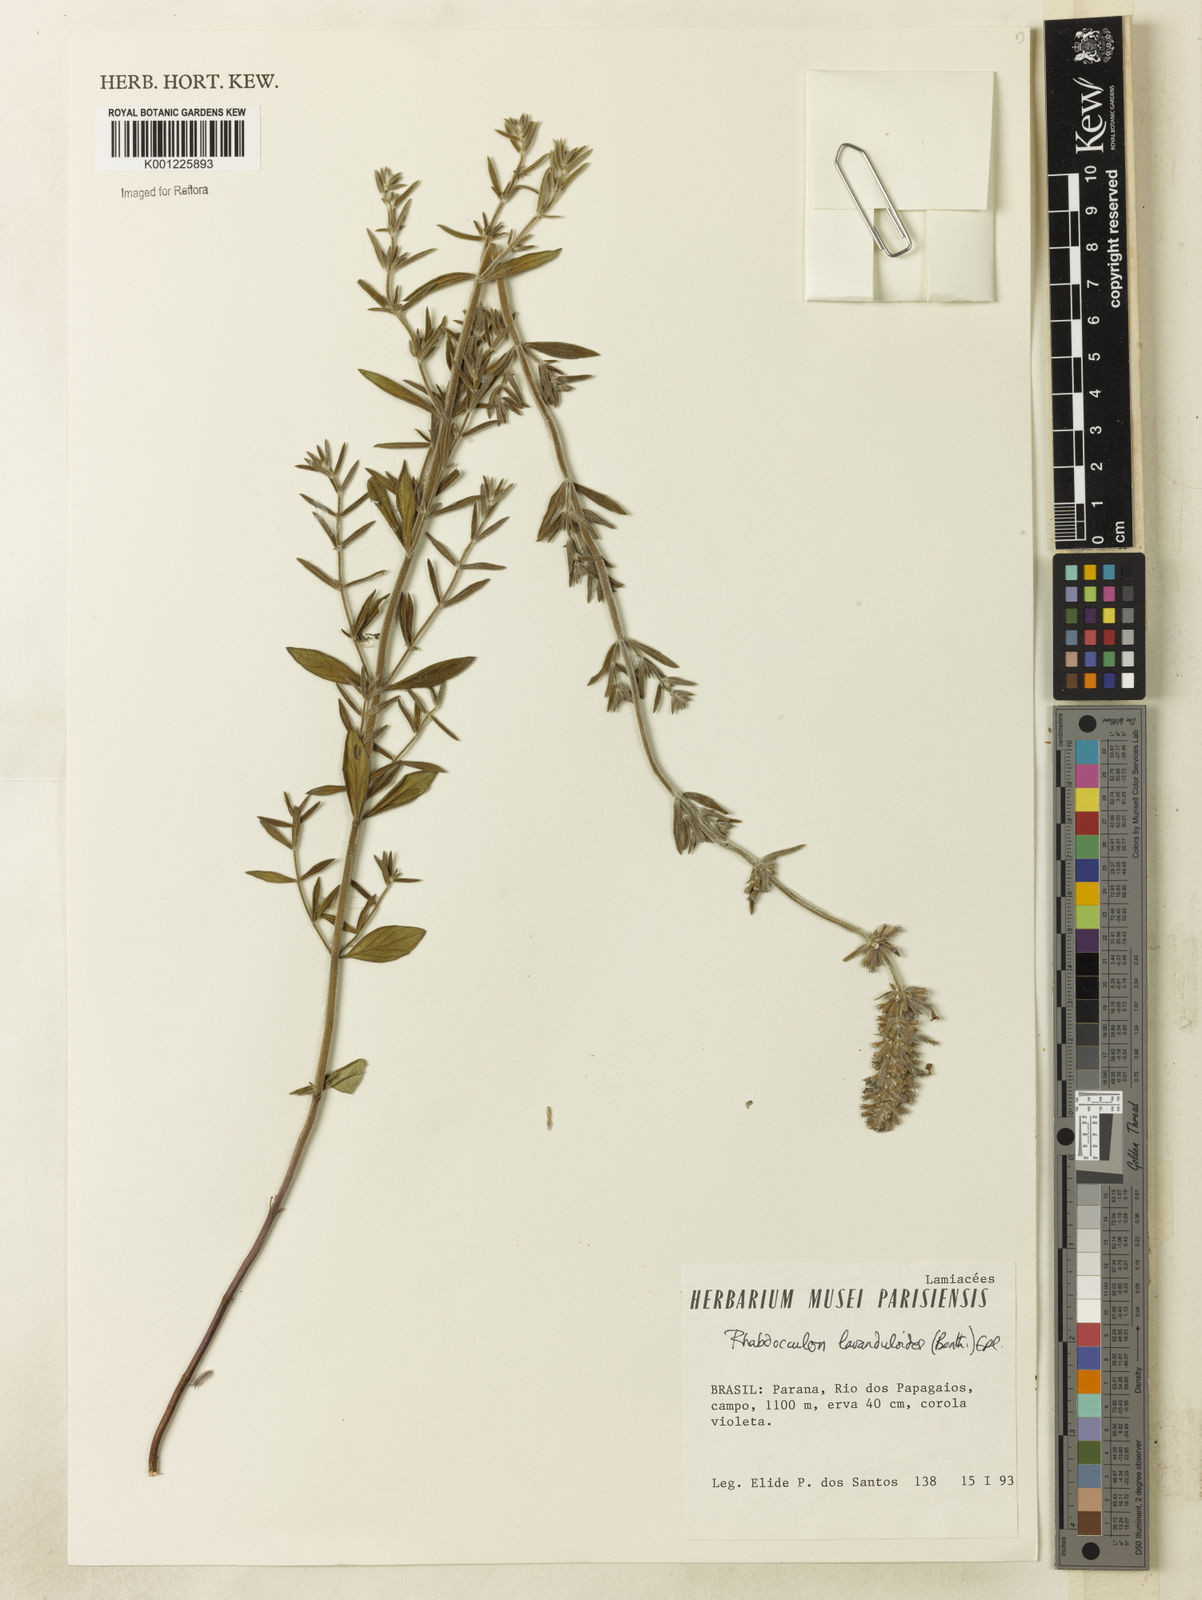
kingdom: Plantae
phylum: Tracheophyta
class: Magnoliopsida
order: Lamiales
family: Lamiaceae
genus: Rhabdocaulon
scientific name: Rhabdocaulon lavanduloides
